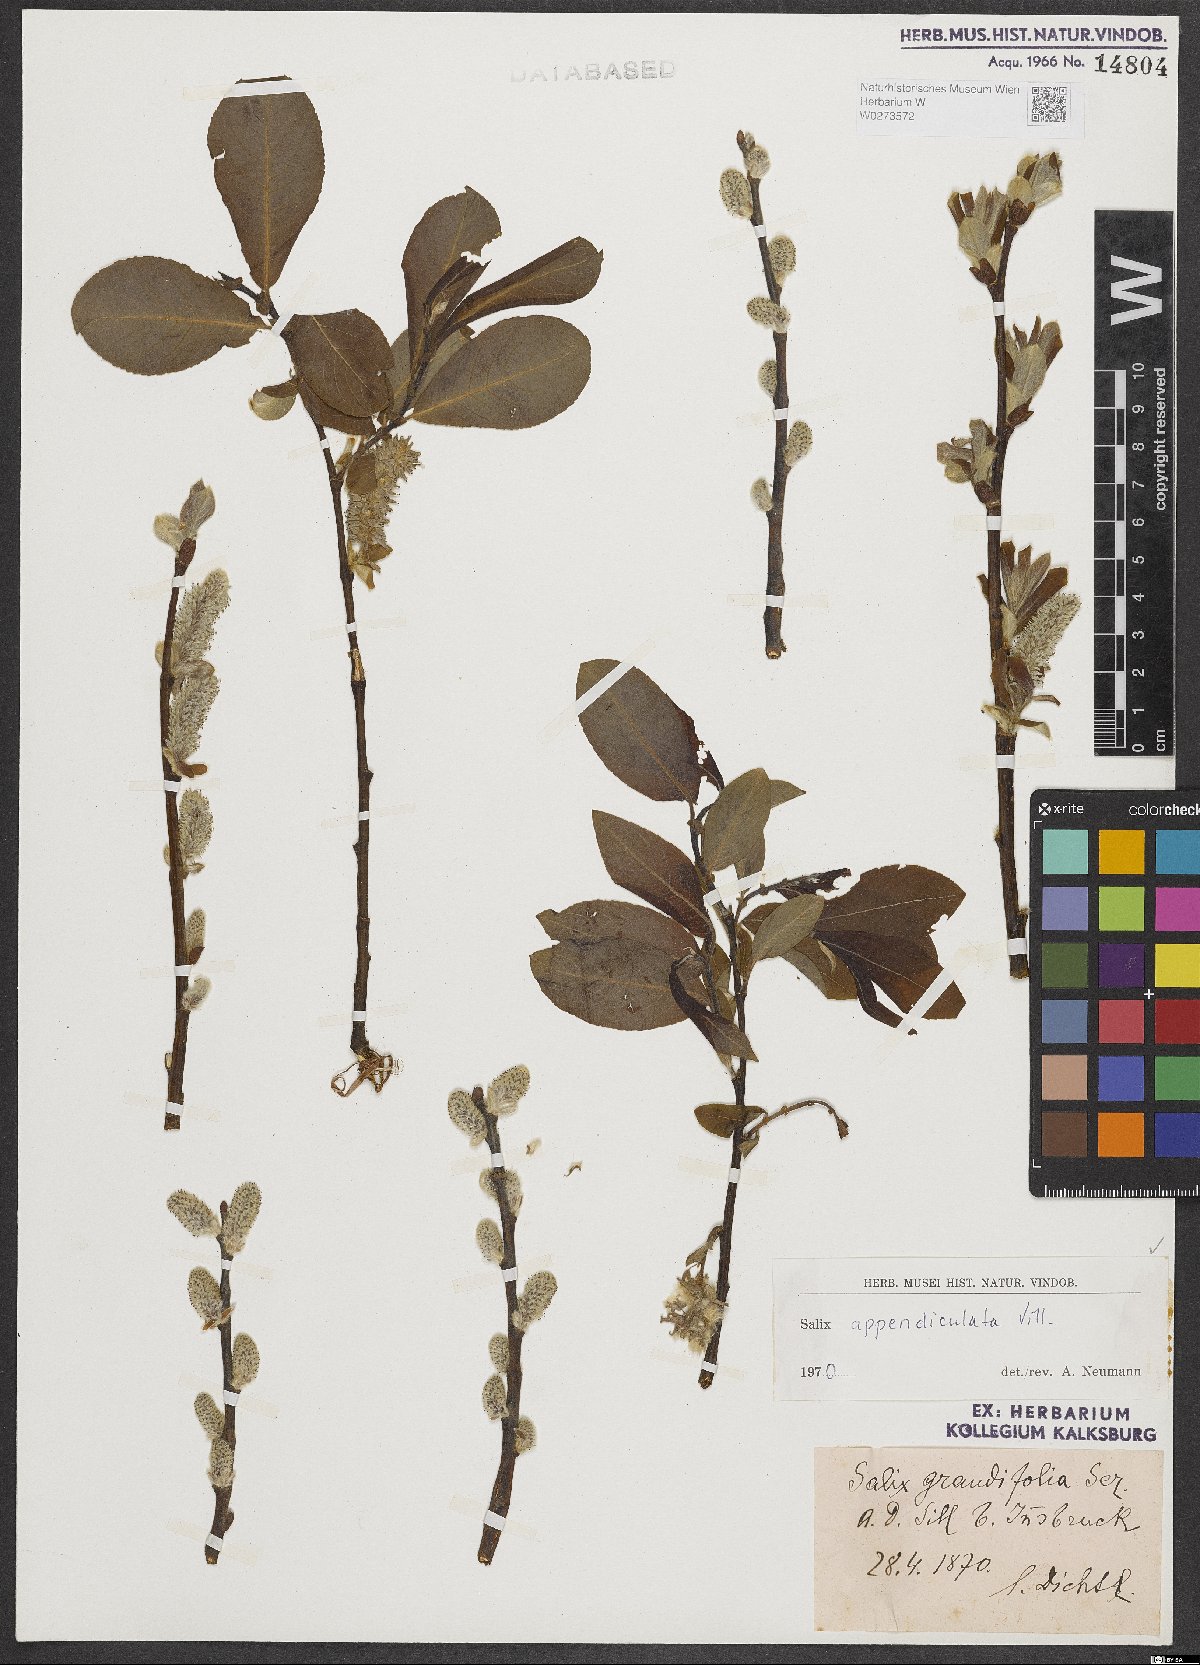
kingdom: Plantae
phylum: Tracheophyta
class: Magnoliopsida
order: Malpighiales
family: Salicaceae
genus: Salix
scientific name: Salix appendiculata
